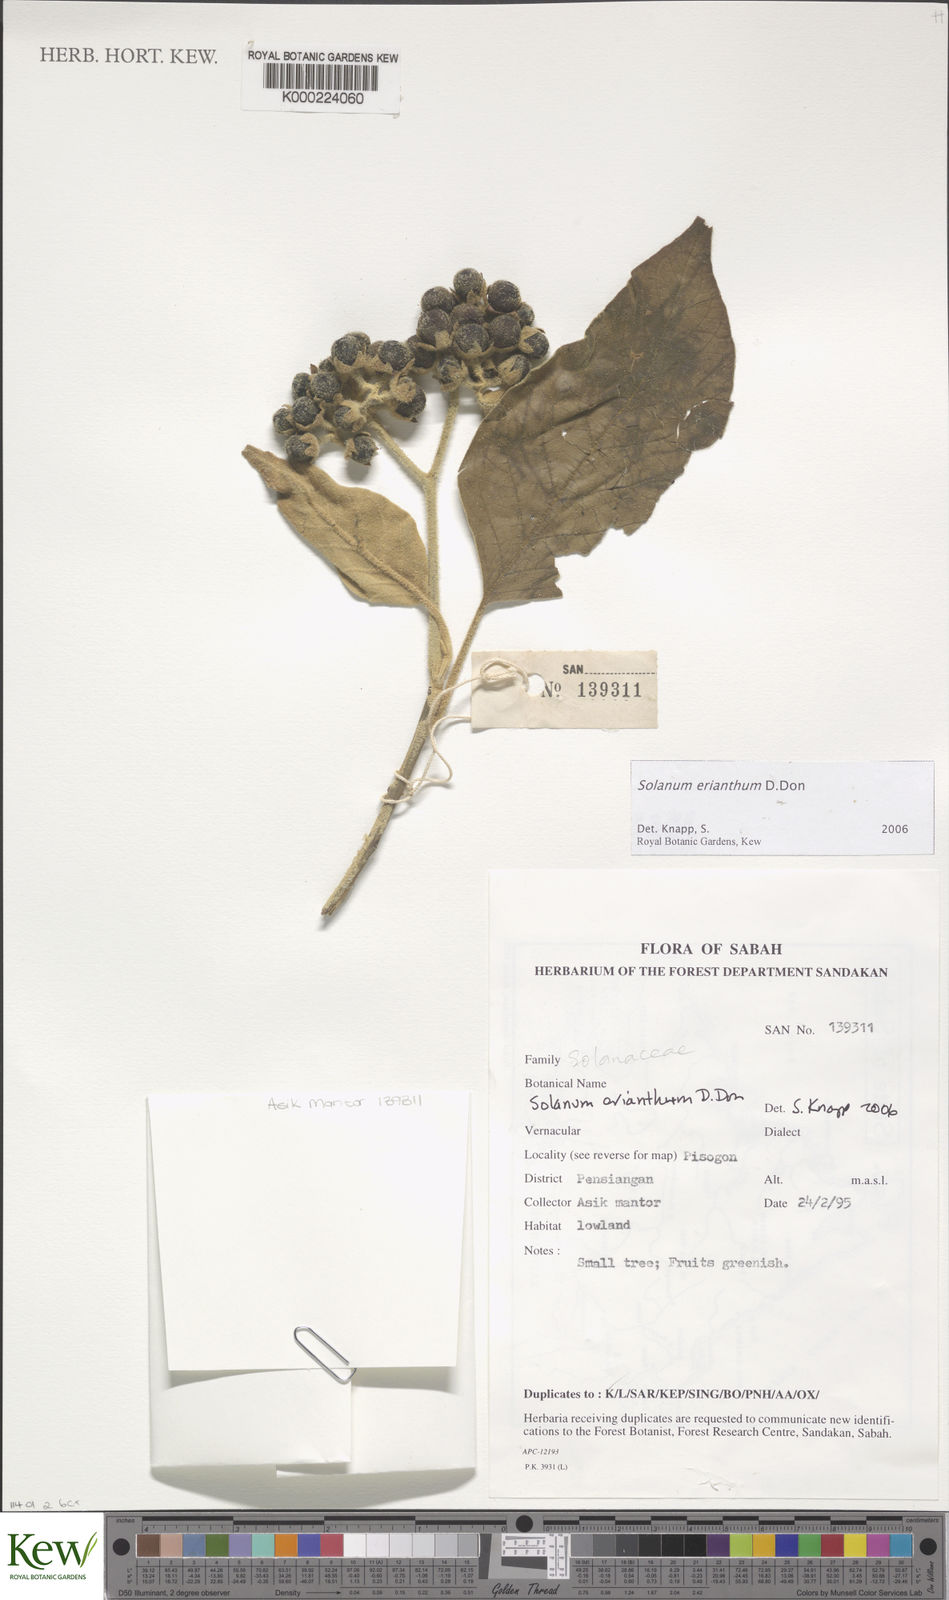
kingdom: Plantae
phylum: Tracheophyta
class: Magnoliopsida
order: Solanales
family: Solanaceae
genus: Solanum
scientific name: Solanum erianthum
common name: Tobacco-tree
